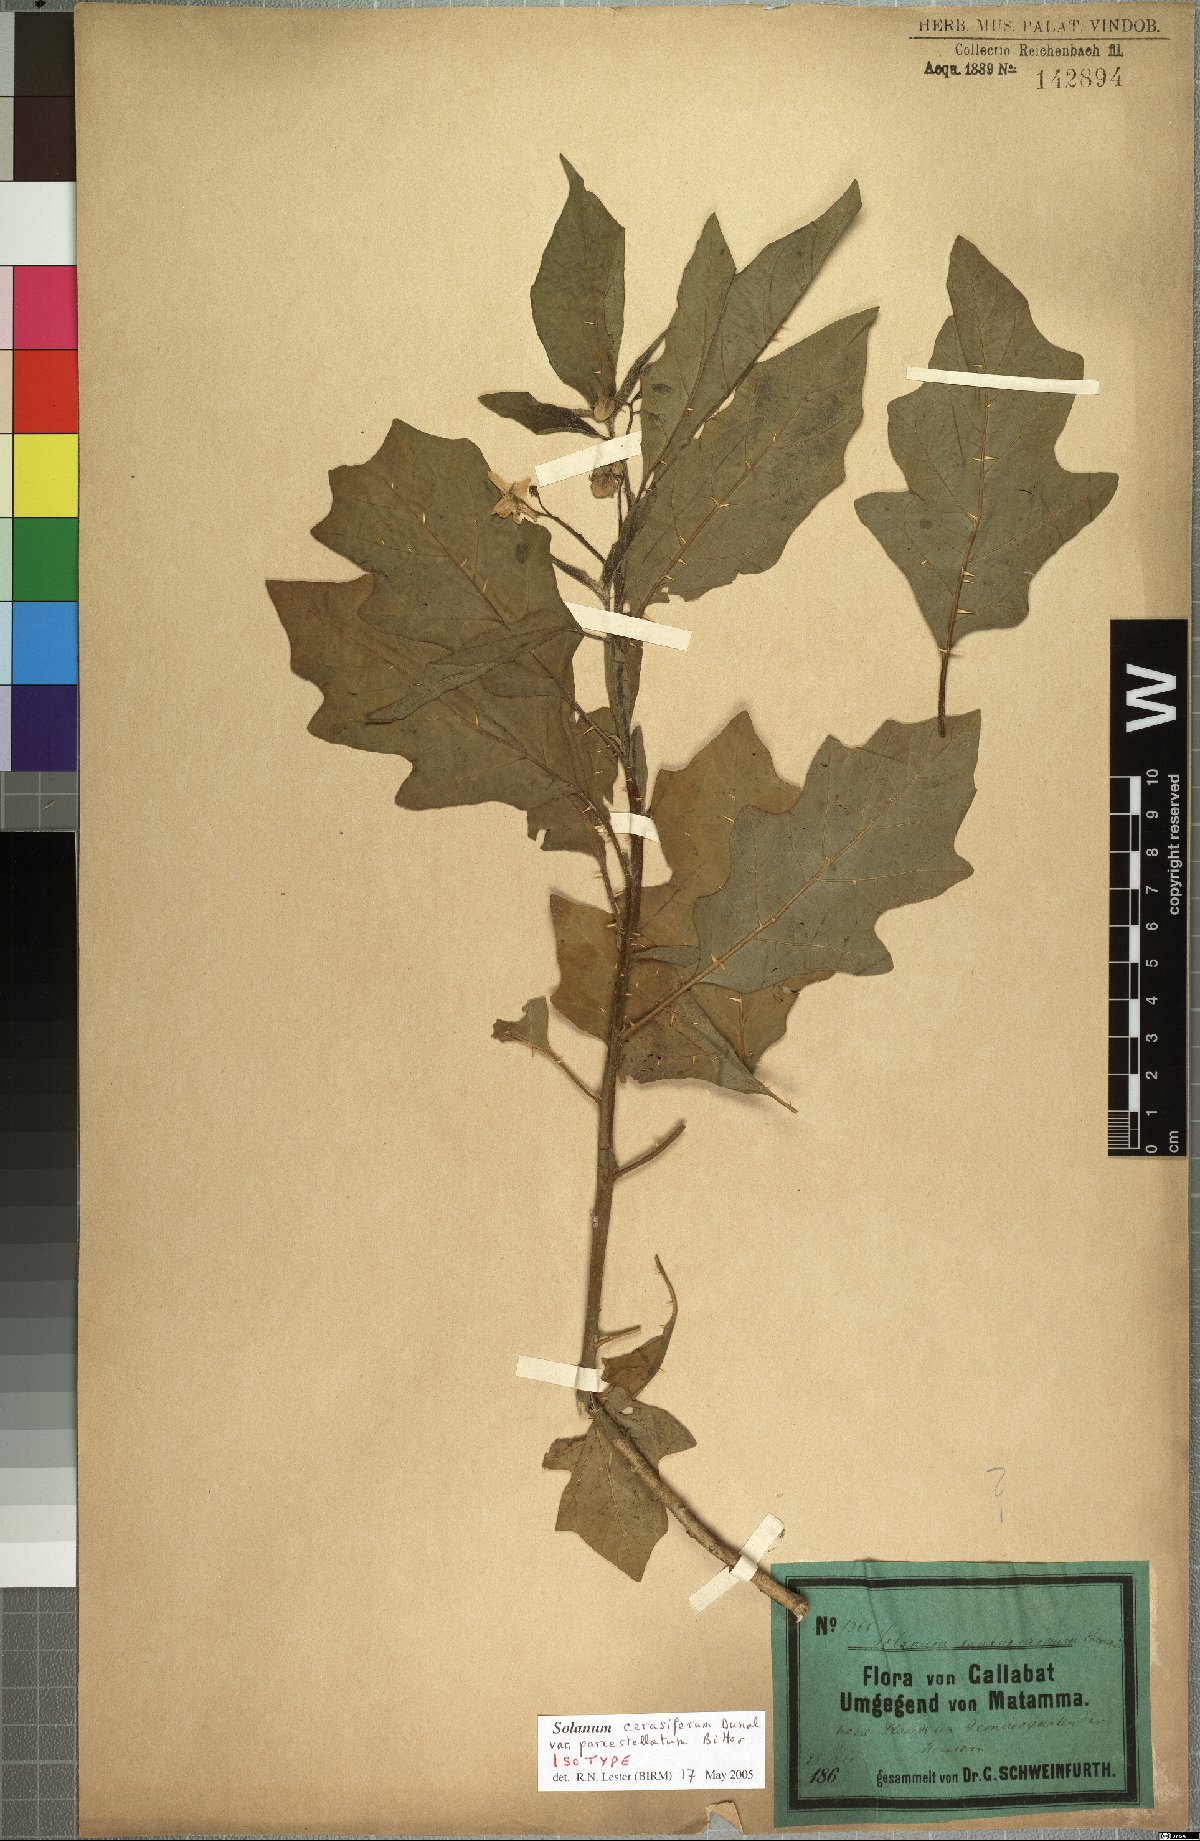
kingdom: Plantae
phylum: Tracheophyta
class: Magnoliopsida
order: Solanales
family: Solanaceae
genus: Solanum
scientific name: Solanum cerasiferum
